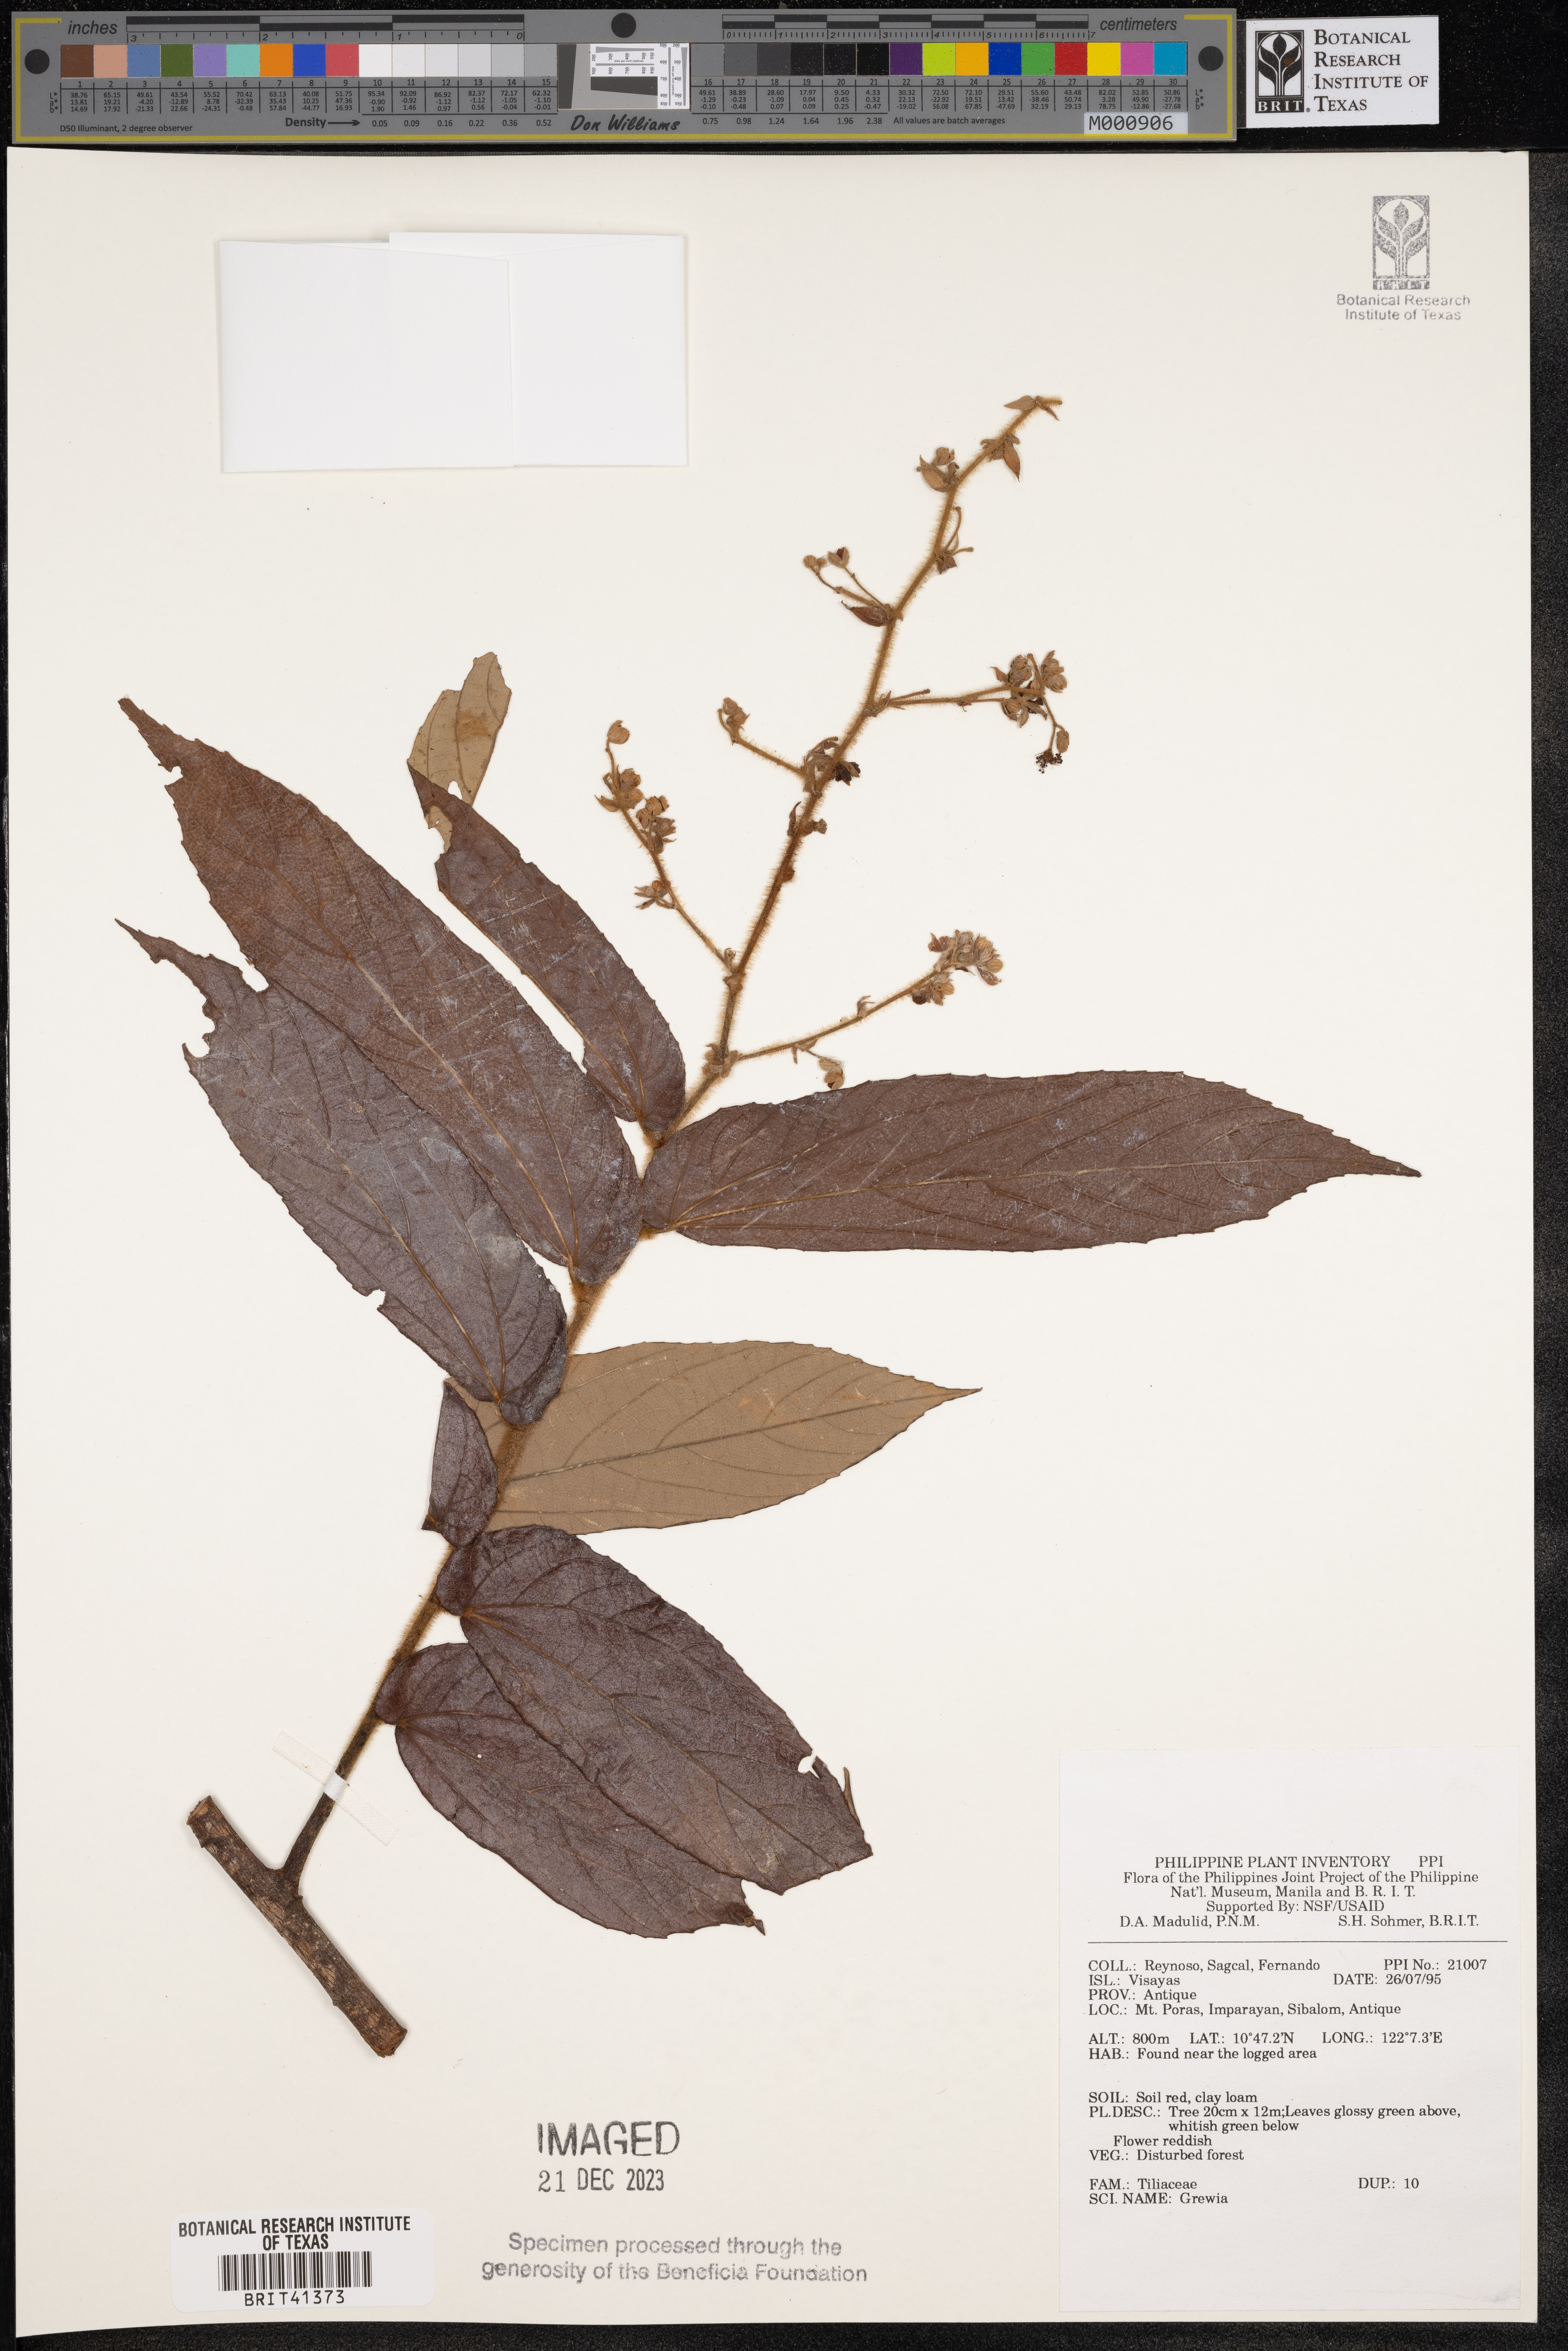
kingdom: Plantae
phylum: Tracheophyta
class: Magnoliopsida
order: Malvales
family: Malvaceae
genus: Grewia
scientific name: Grewia
